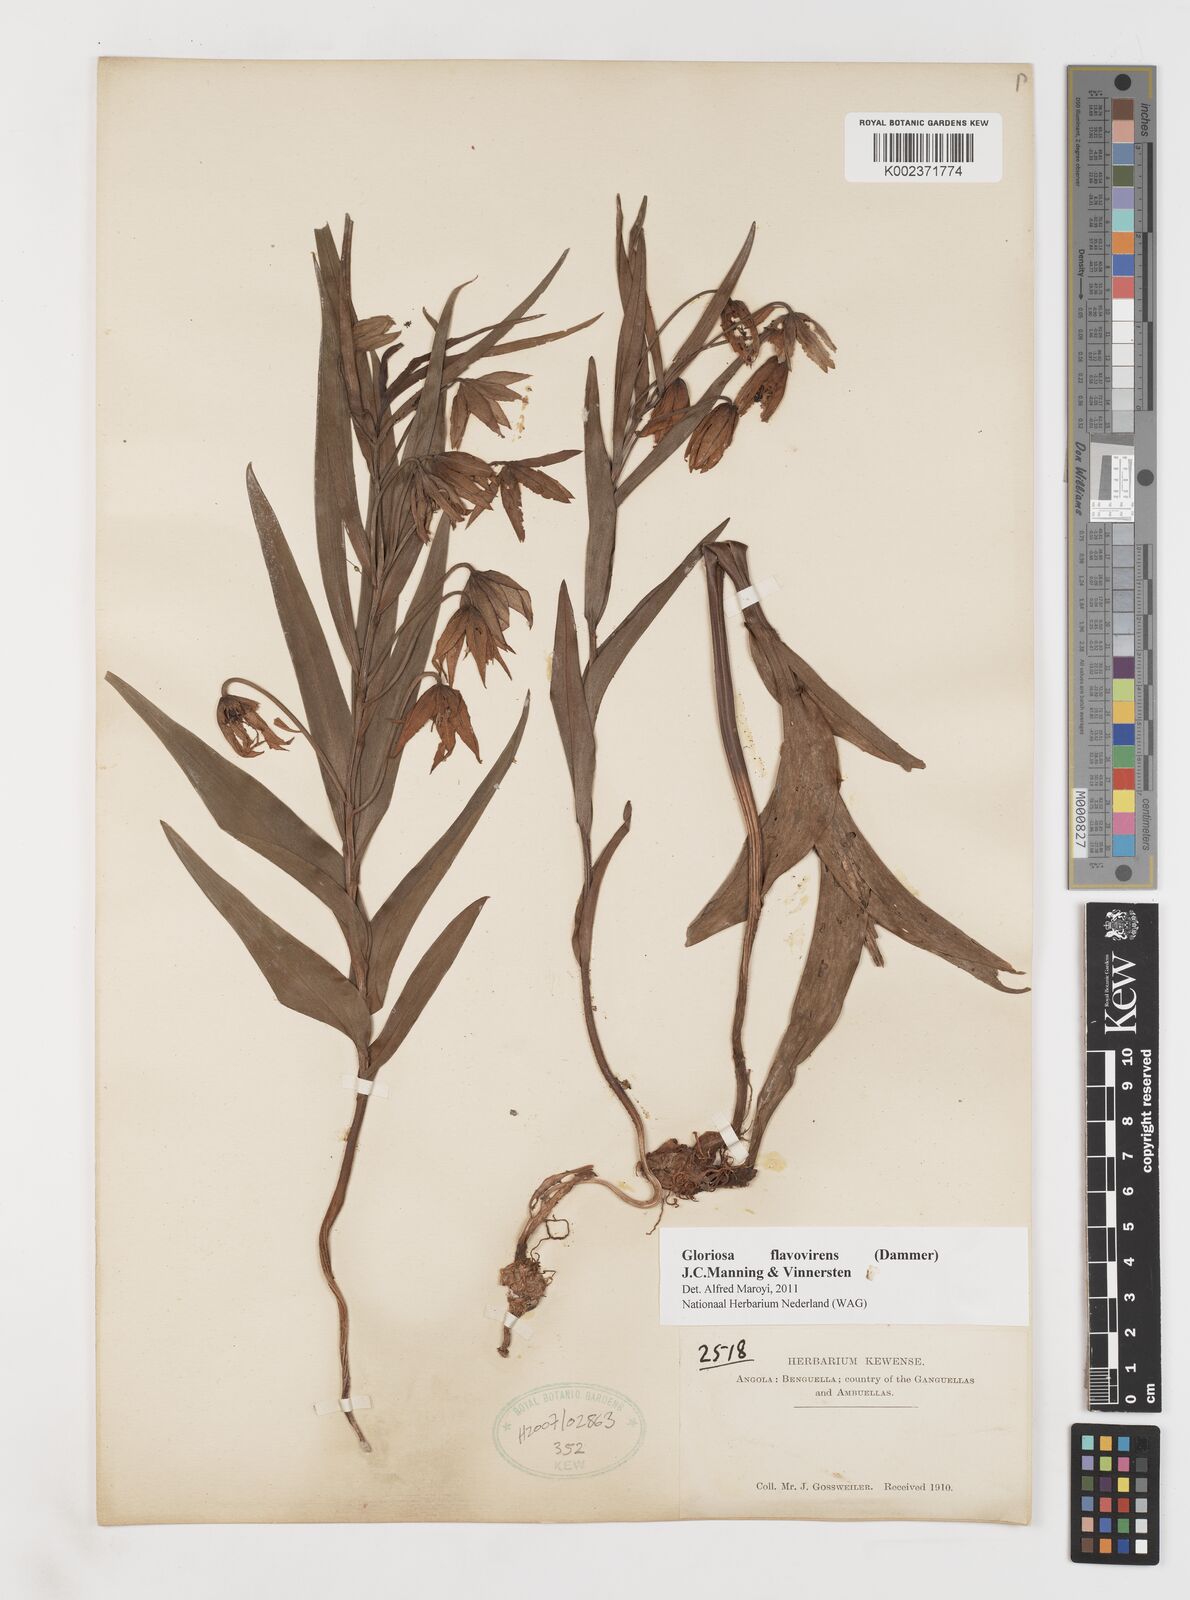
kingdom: Plantae
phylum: Tracheophyta
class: Liliopsida
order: Liliales
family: Colchicaceae
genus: Gloriosa
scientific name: Gloriosa flavovirens
